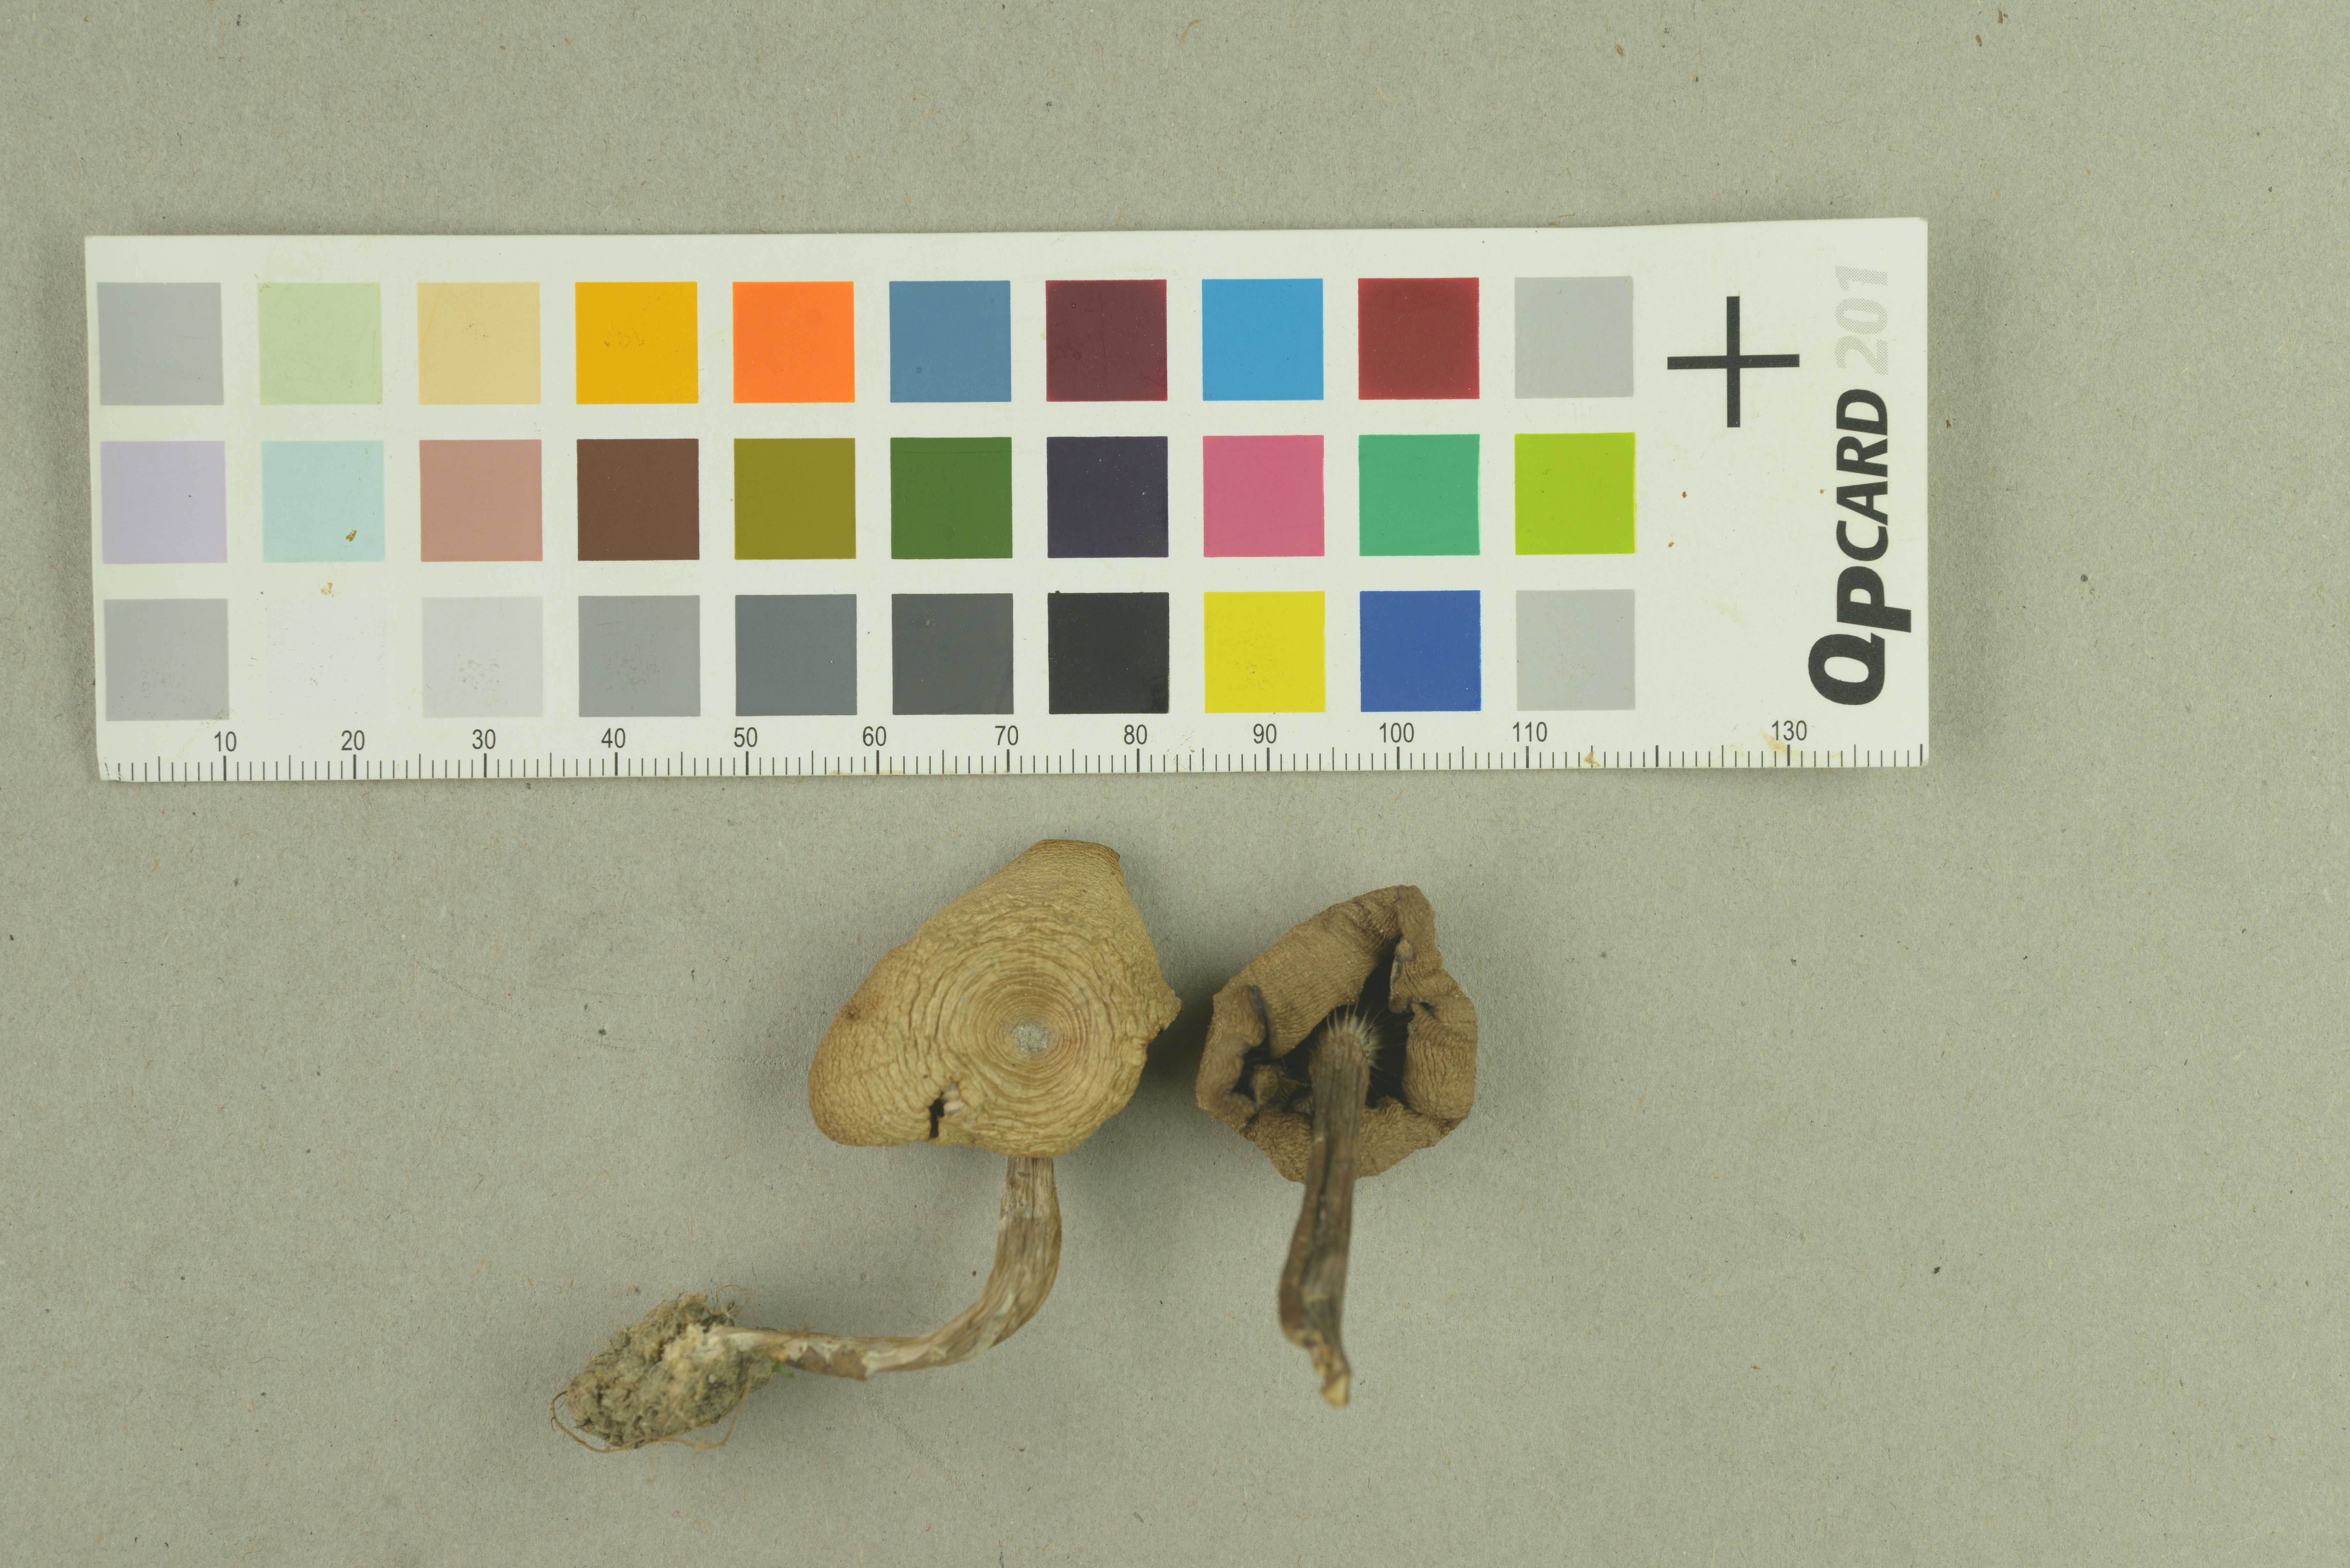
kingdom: Fungi
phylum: Basidiomycota
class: Agaricomycetes
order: Agaricales
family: Tricholomataceae
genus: Clitocybe
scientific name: Clitocybe subspadicea
